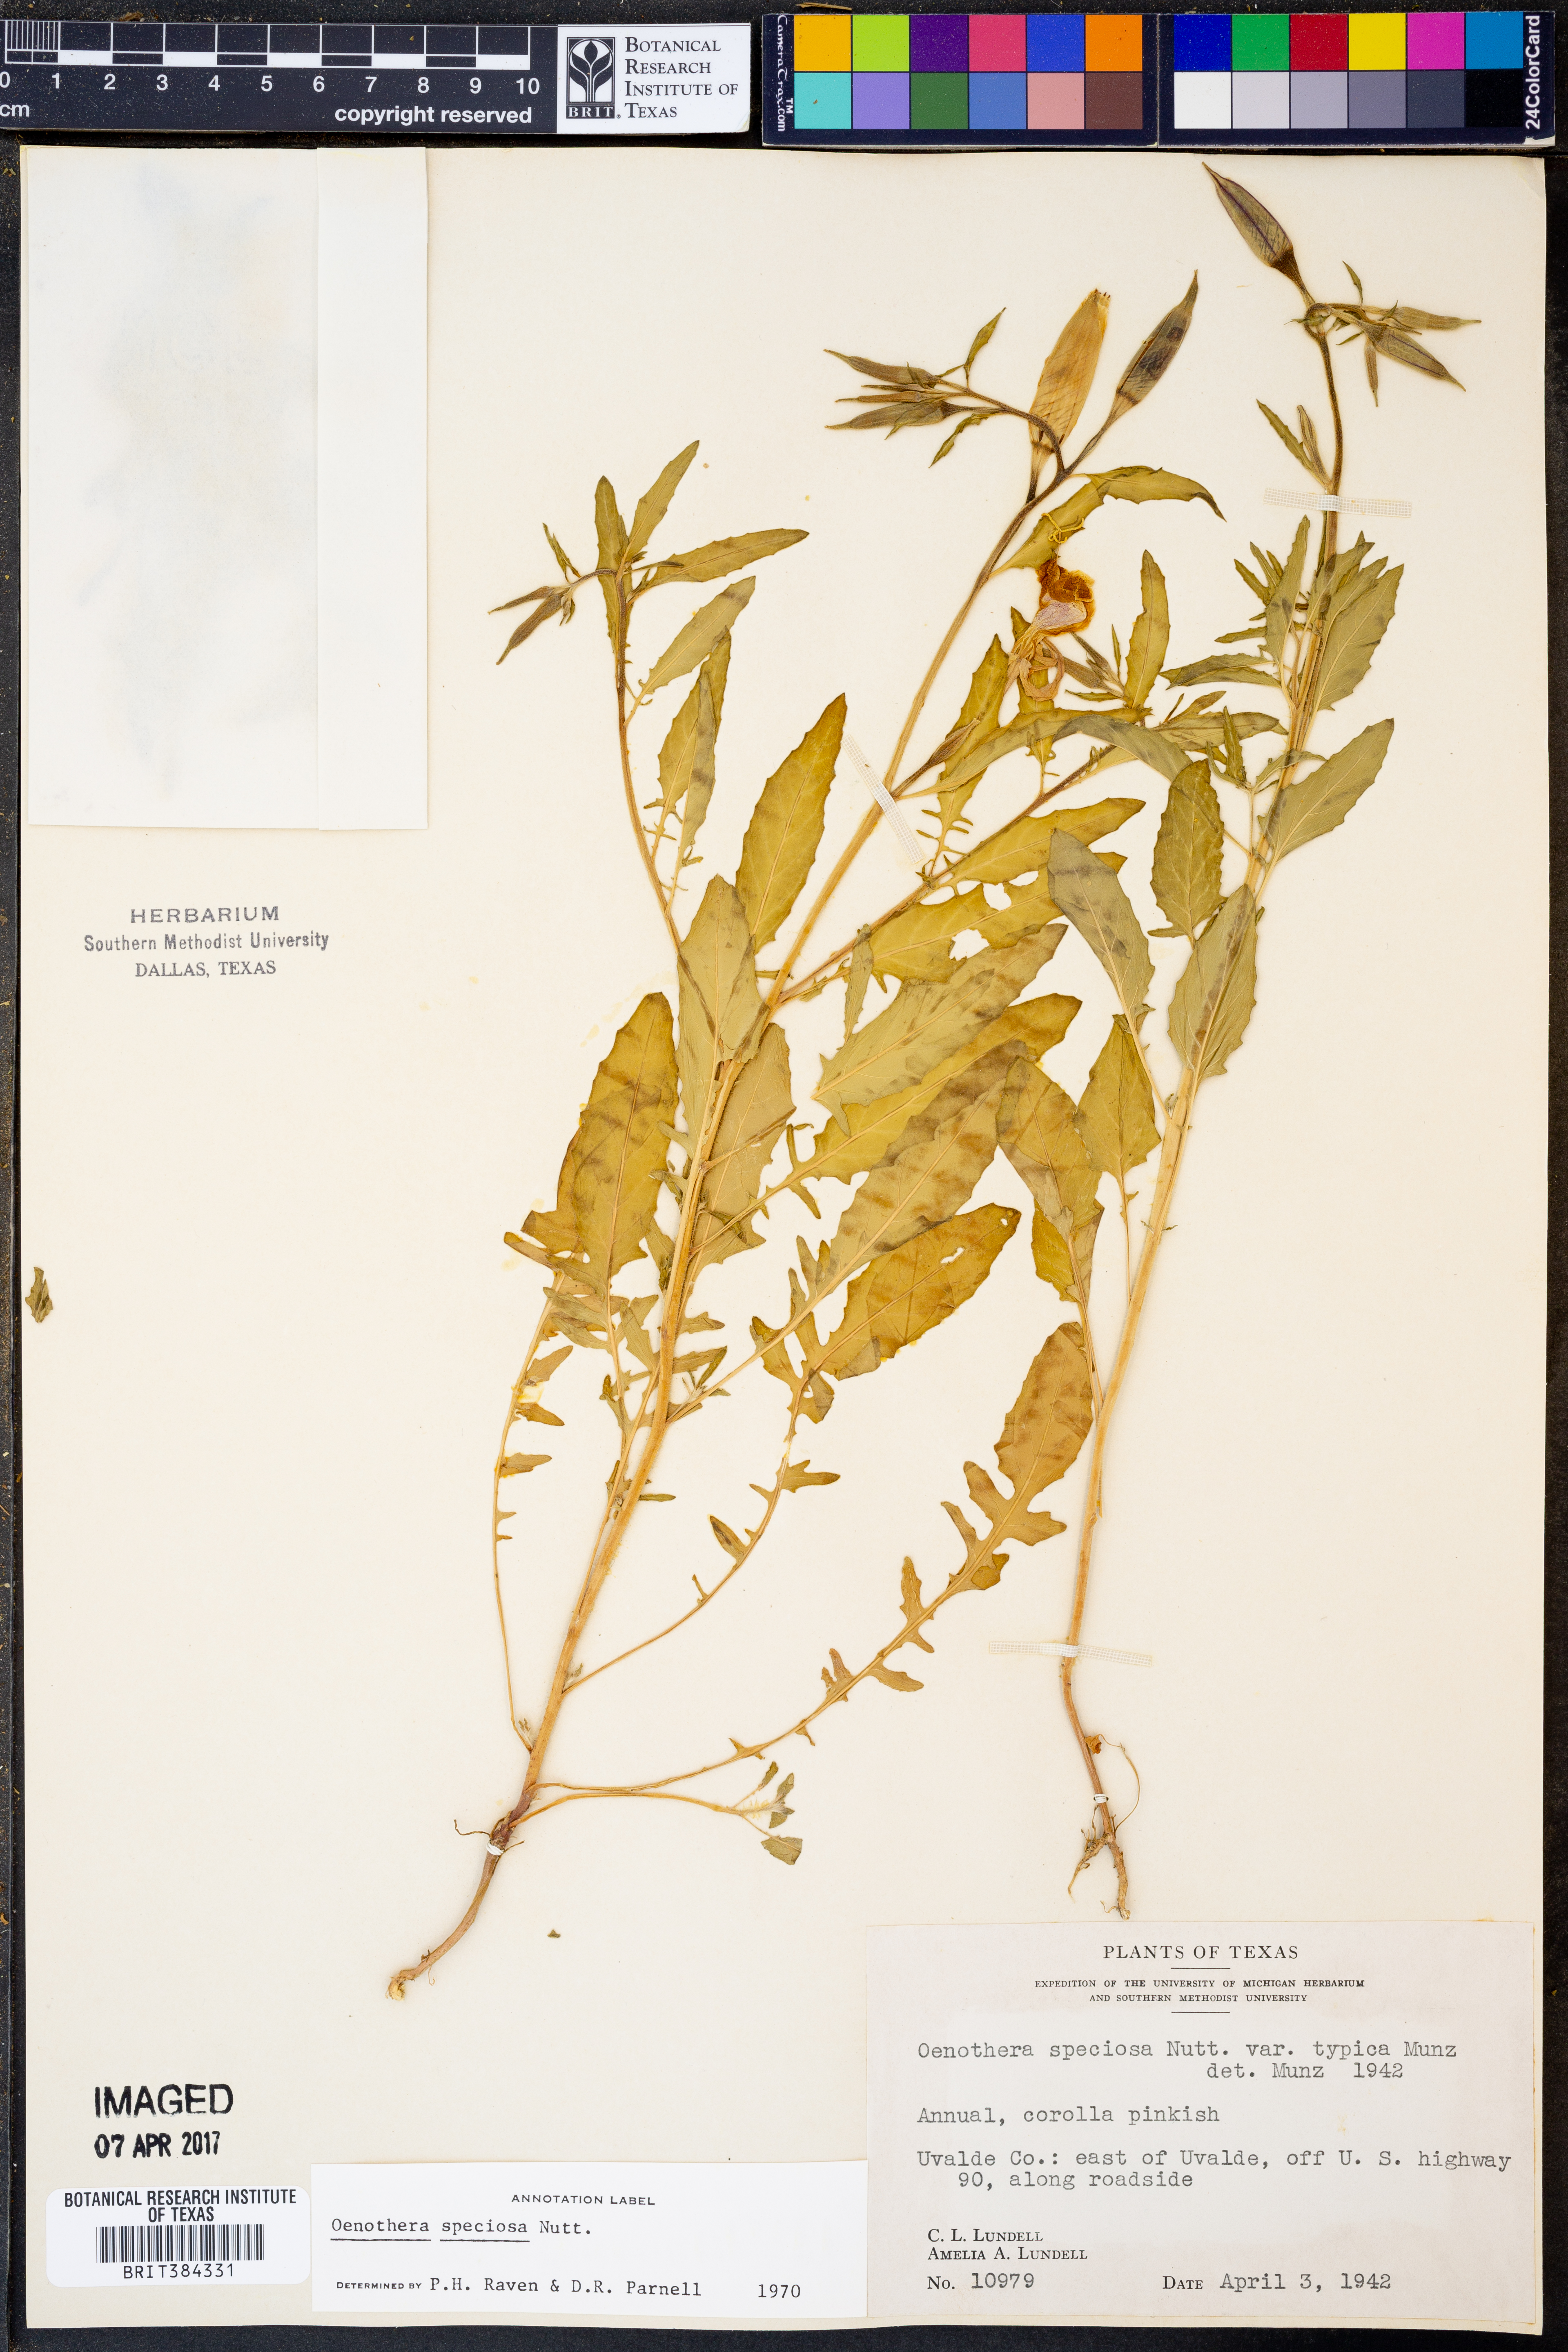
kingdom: Plantae
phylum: Tracheophyta
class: Magnoliopsida
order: Myrtales
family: Onagraceae
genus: Oenothera
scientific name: Oenothera speciosa
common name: White evening-primrose
